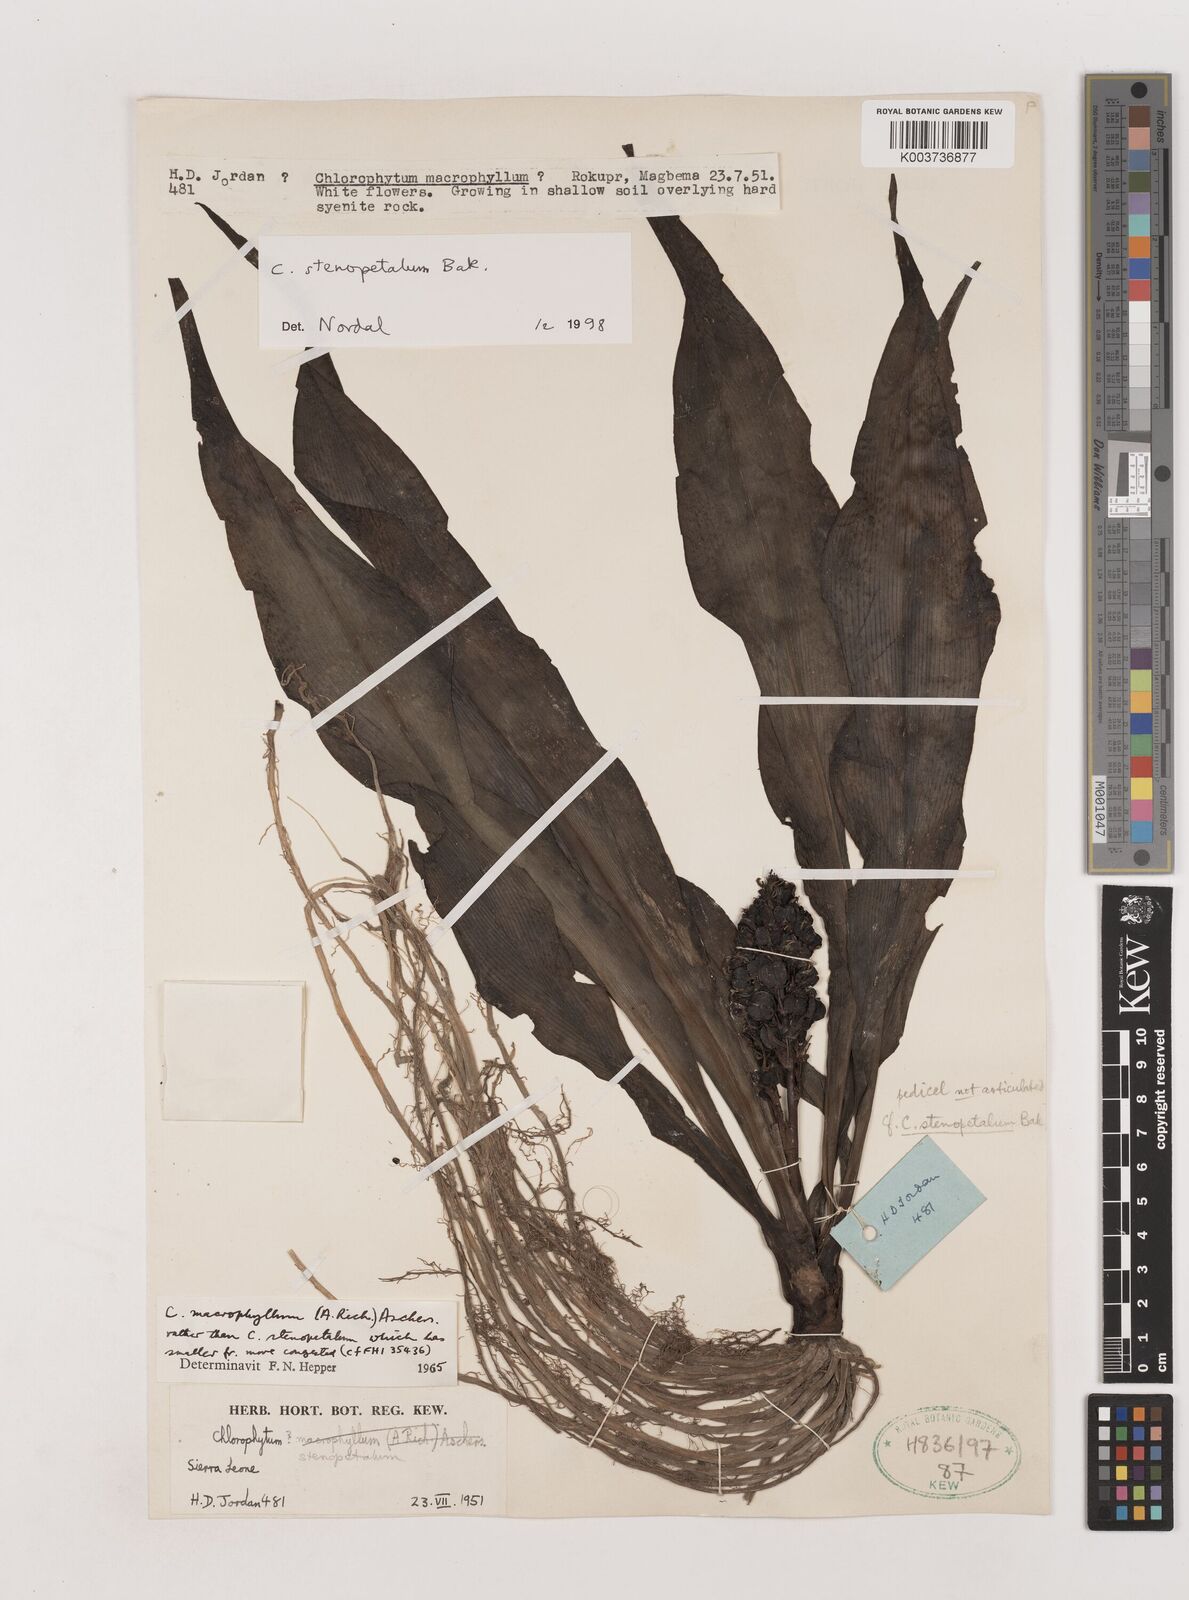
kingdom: Plantae
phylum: Tracheophyta
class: Liliopsida
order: Asparagales
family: Asparagaceae
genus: Chlorophytum
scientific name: Chlorophytum stenopetalum
